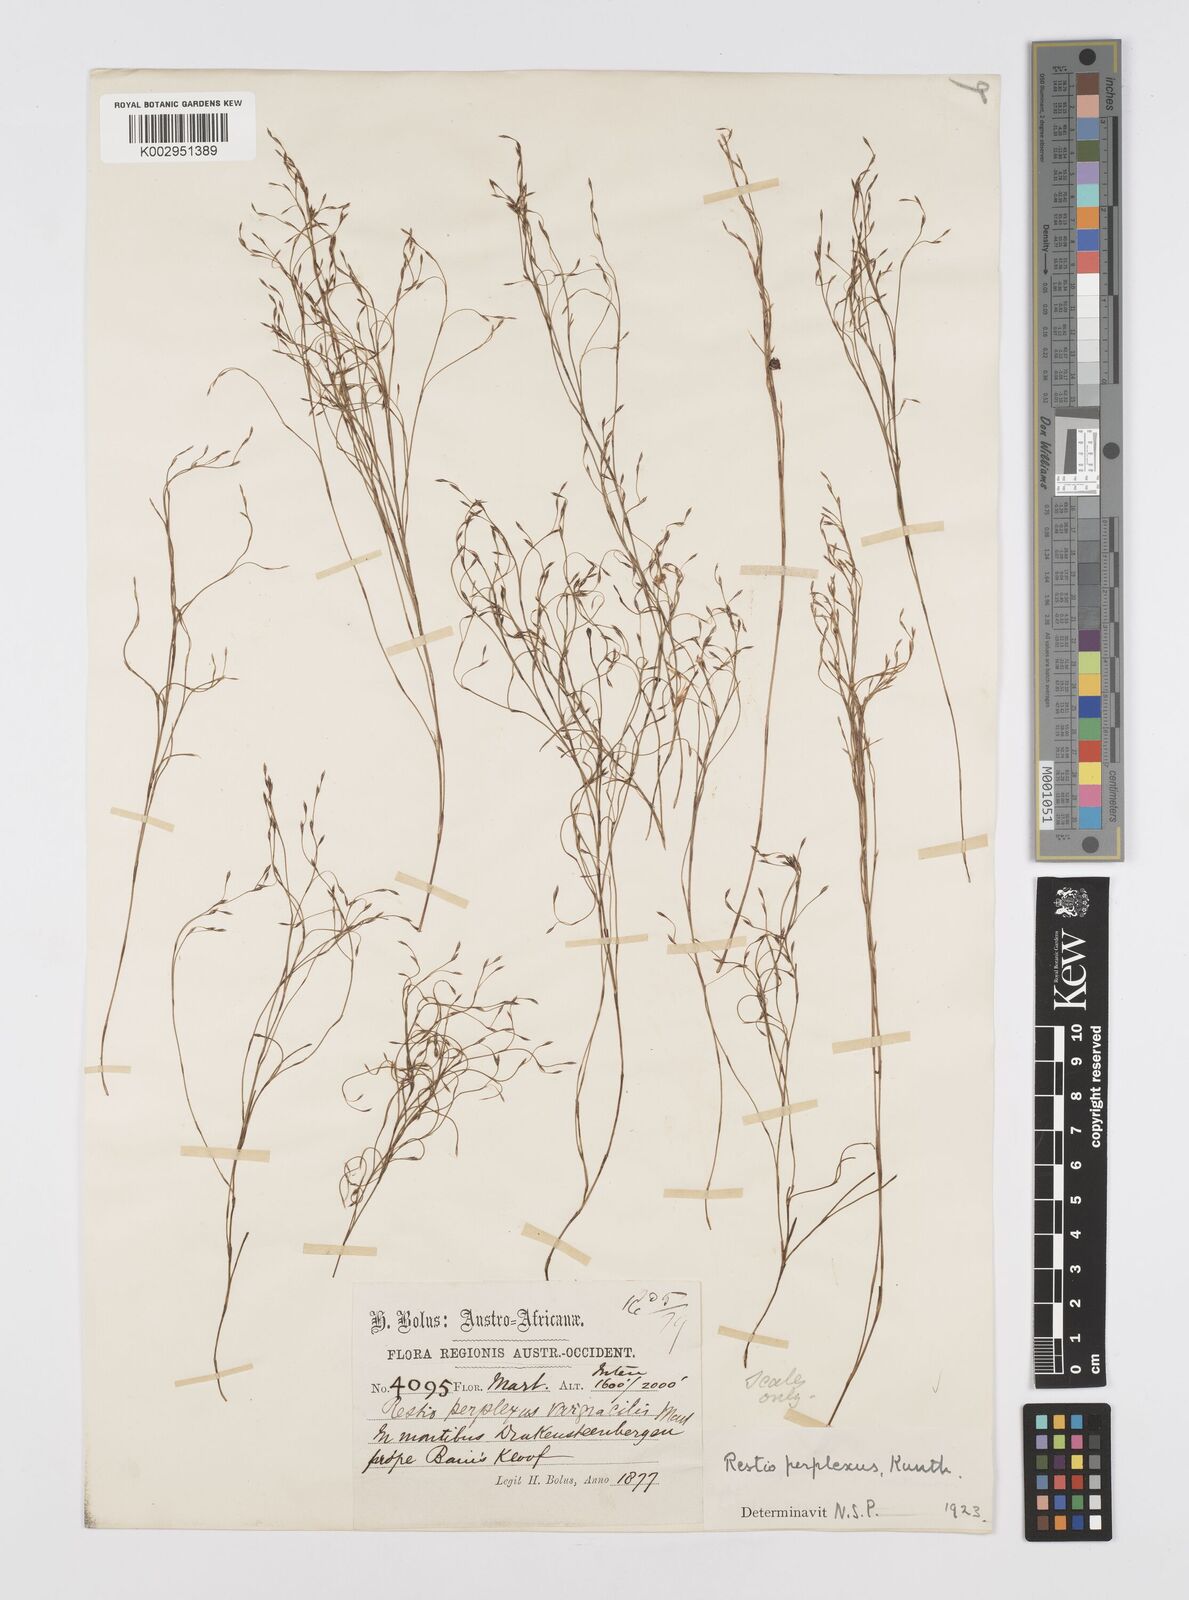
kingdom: Plantae
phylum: Tracheophyta
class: Liliopsida
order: Poales
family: Restionaceae
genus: Restio
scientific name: Restio perplexus
